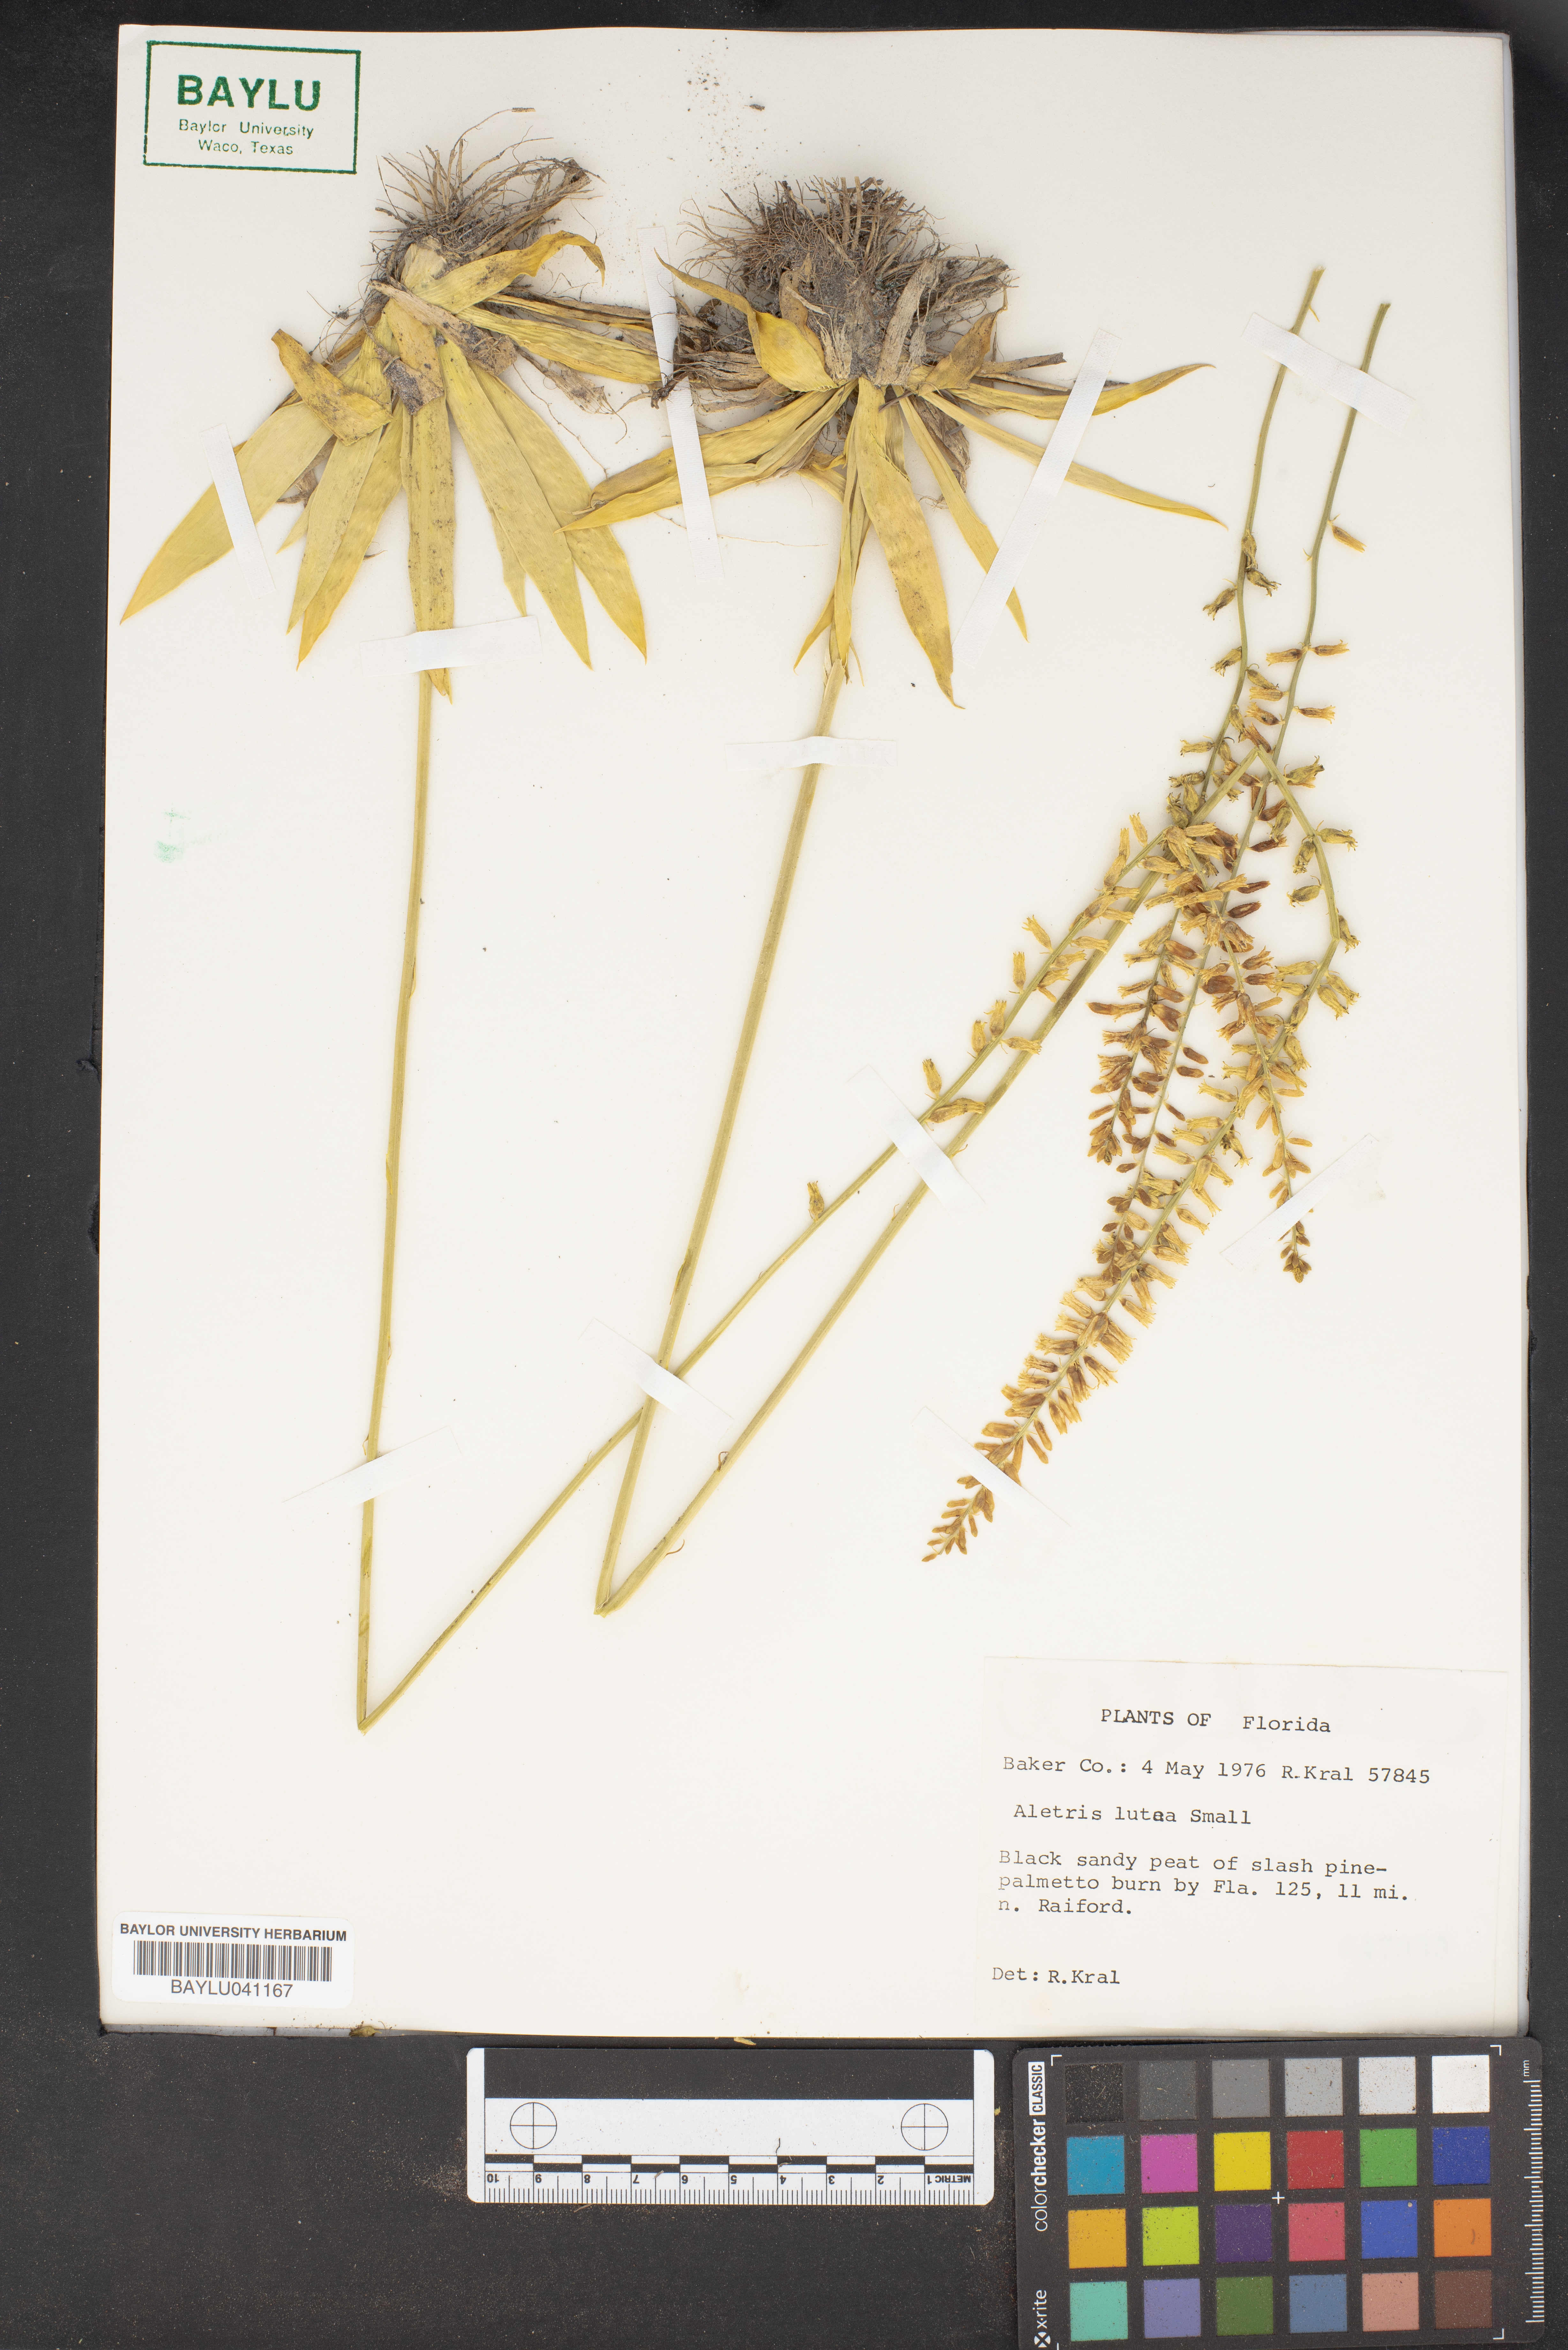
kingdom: Plantae
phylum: Tracheophyta
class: Liliopsida
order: Dioscoreales
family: Nartheciaceae
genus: Aletris
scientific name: Aletris lutea
